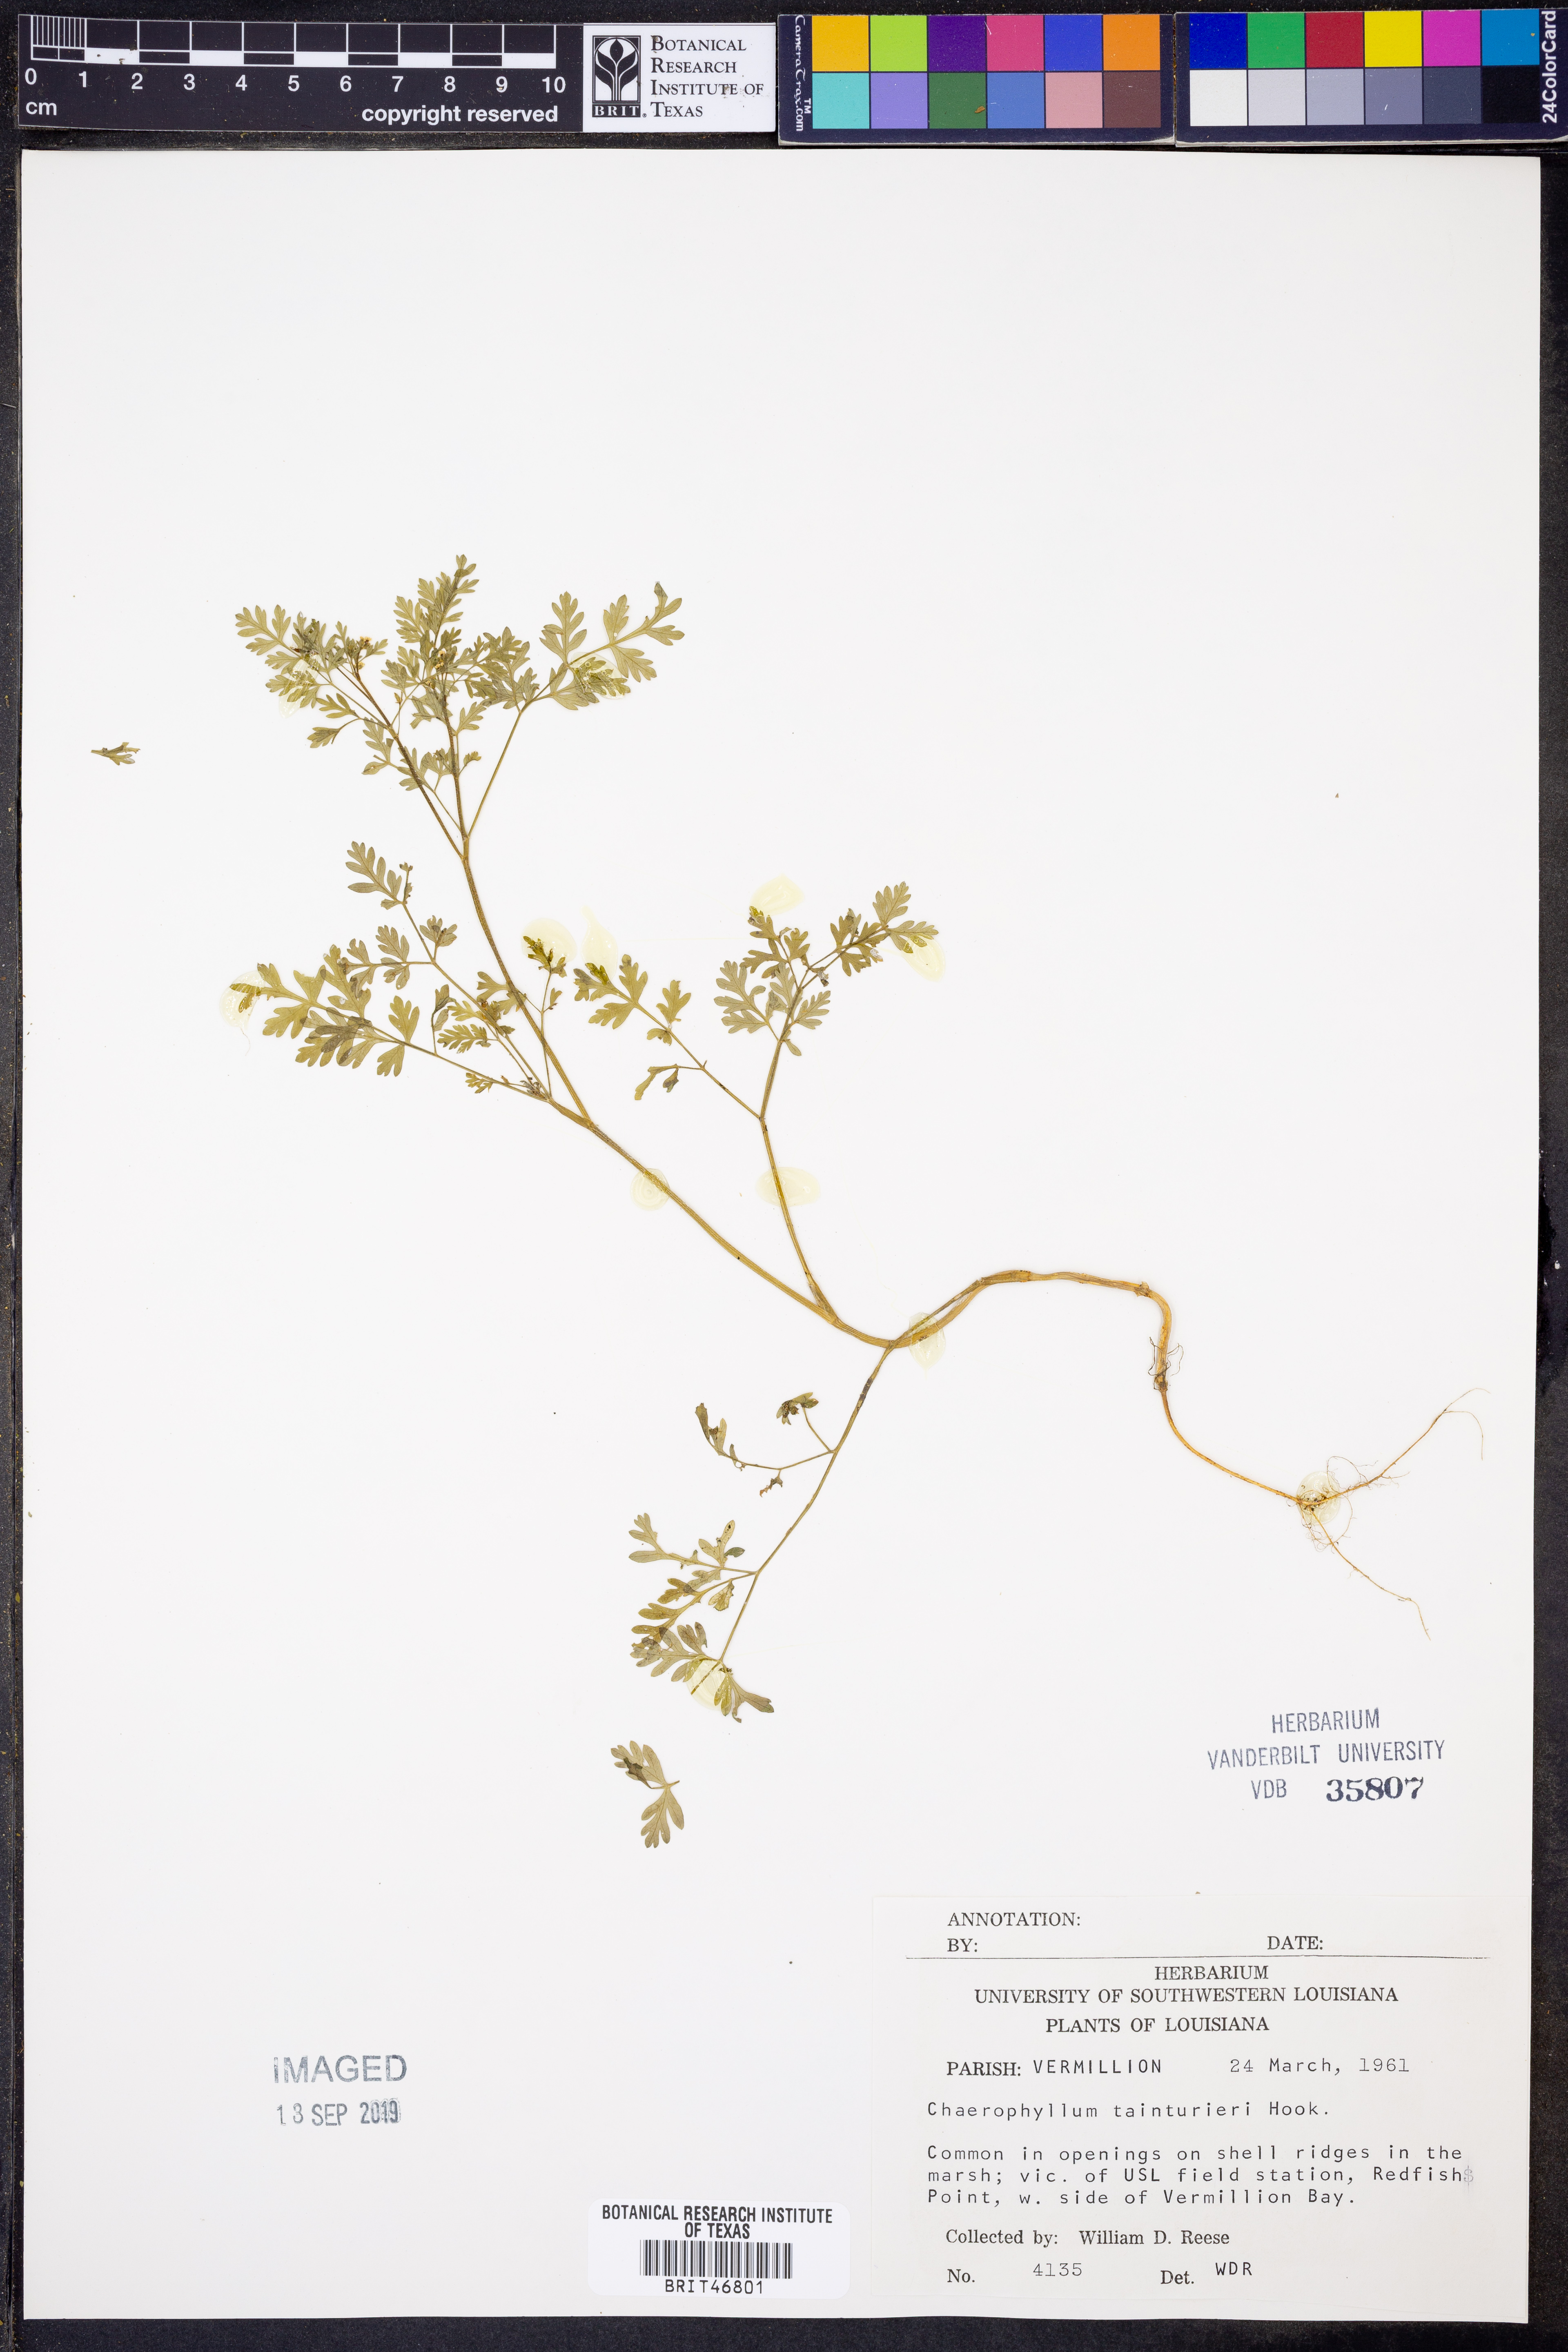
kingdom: Plantae
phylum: Tracheophyta
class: Magnoliopsida
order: Apiales
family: Apiaceae
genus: Chaerophyllum
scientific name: Chaerophyllum tainturieri
